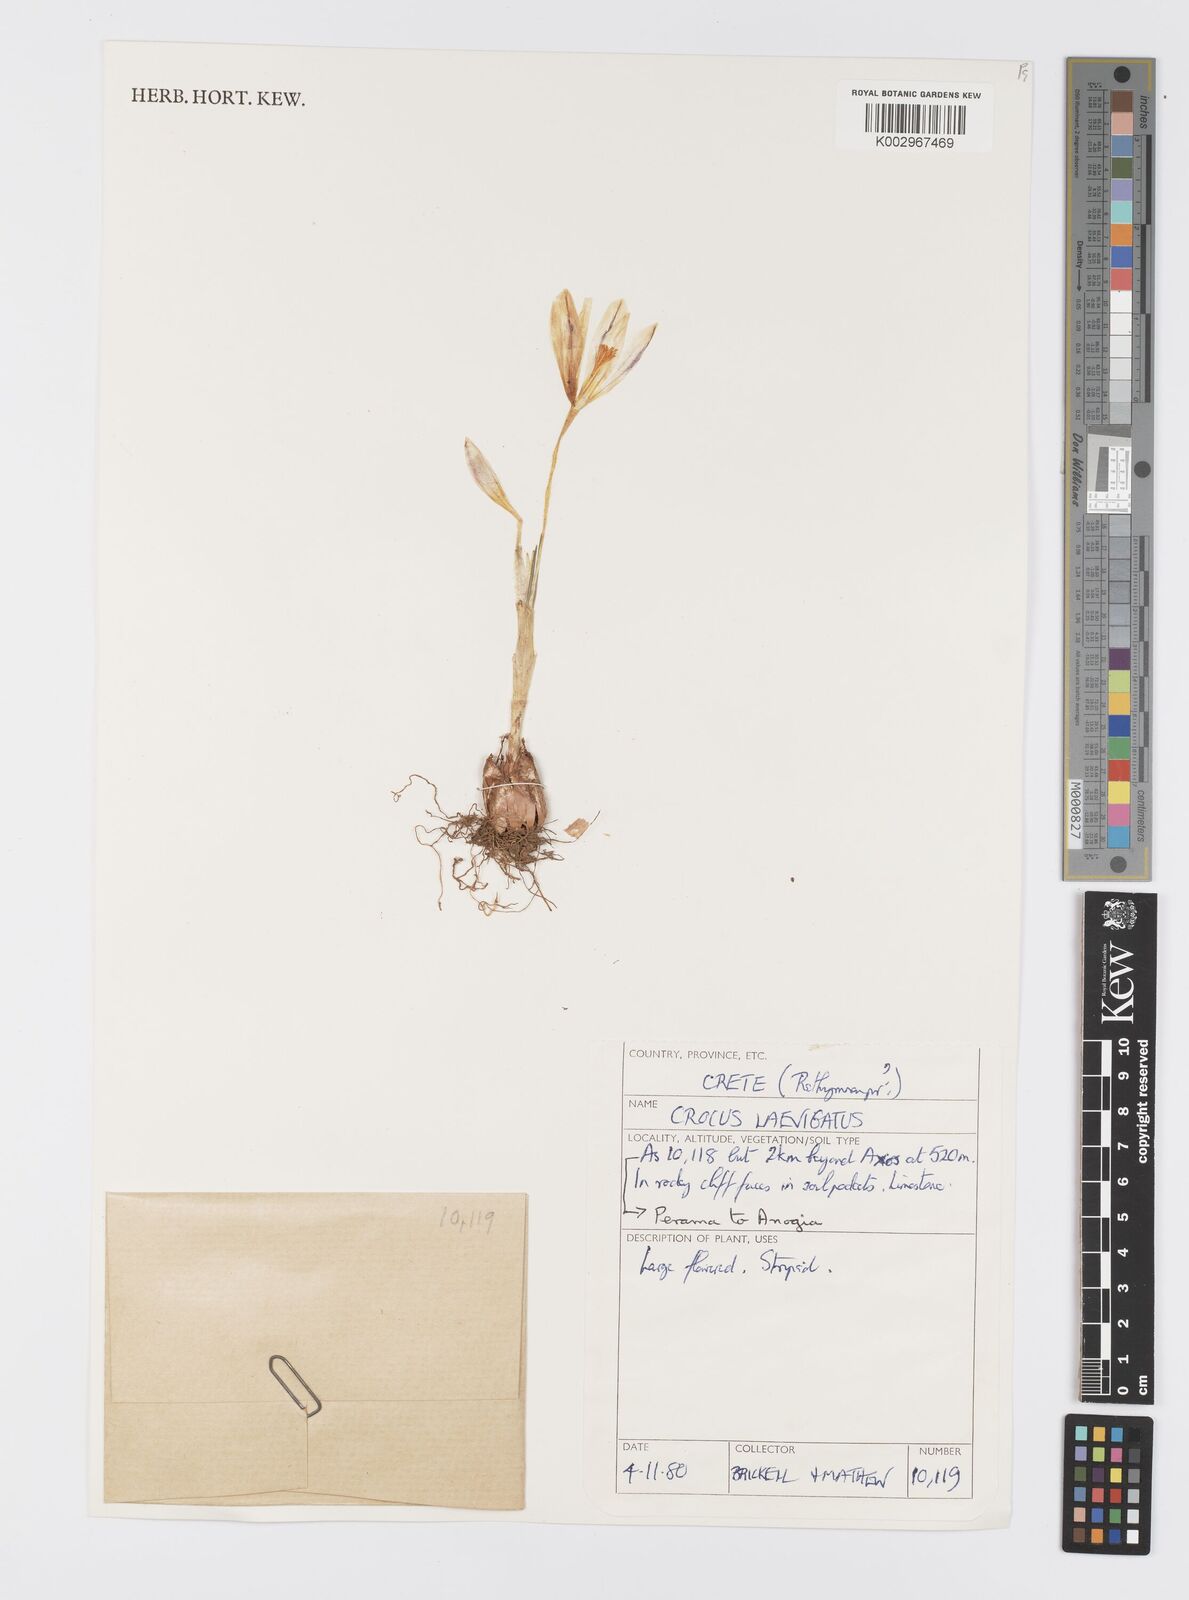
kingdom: Plantae
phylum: Tracheophyta
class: Liliopsida
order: Asparagales
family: Iridaceae
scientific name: Iridaceae
